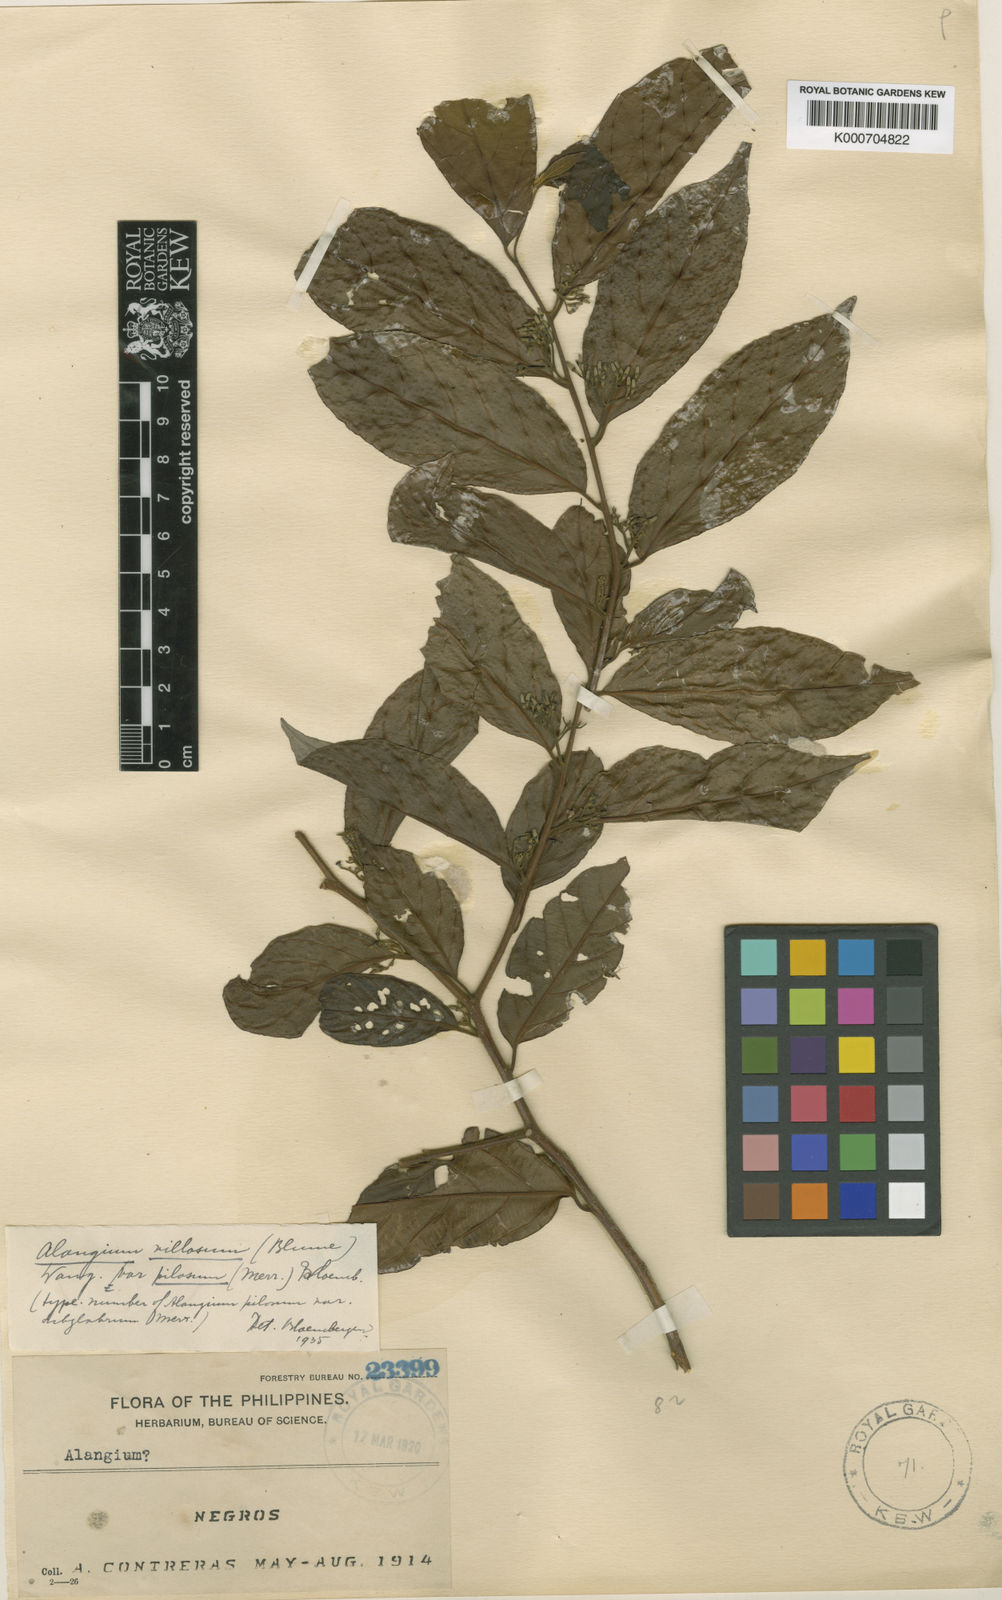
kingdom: Plantae
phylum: Tracheophyta
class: Magnoliopsida
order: Cornales
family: Cornaceae
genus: Alangium
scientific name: Alangium villosum
